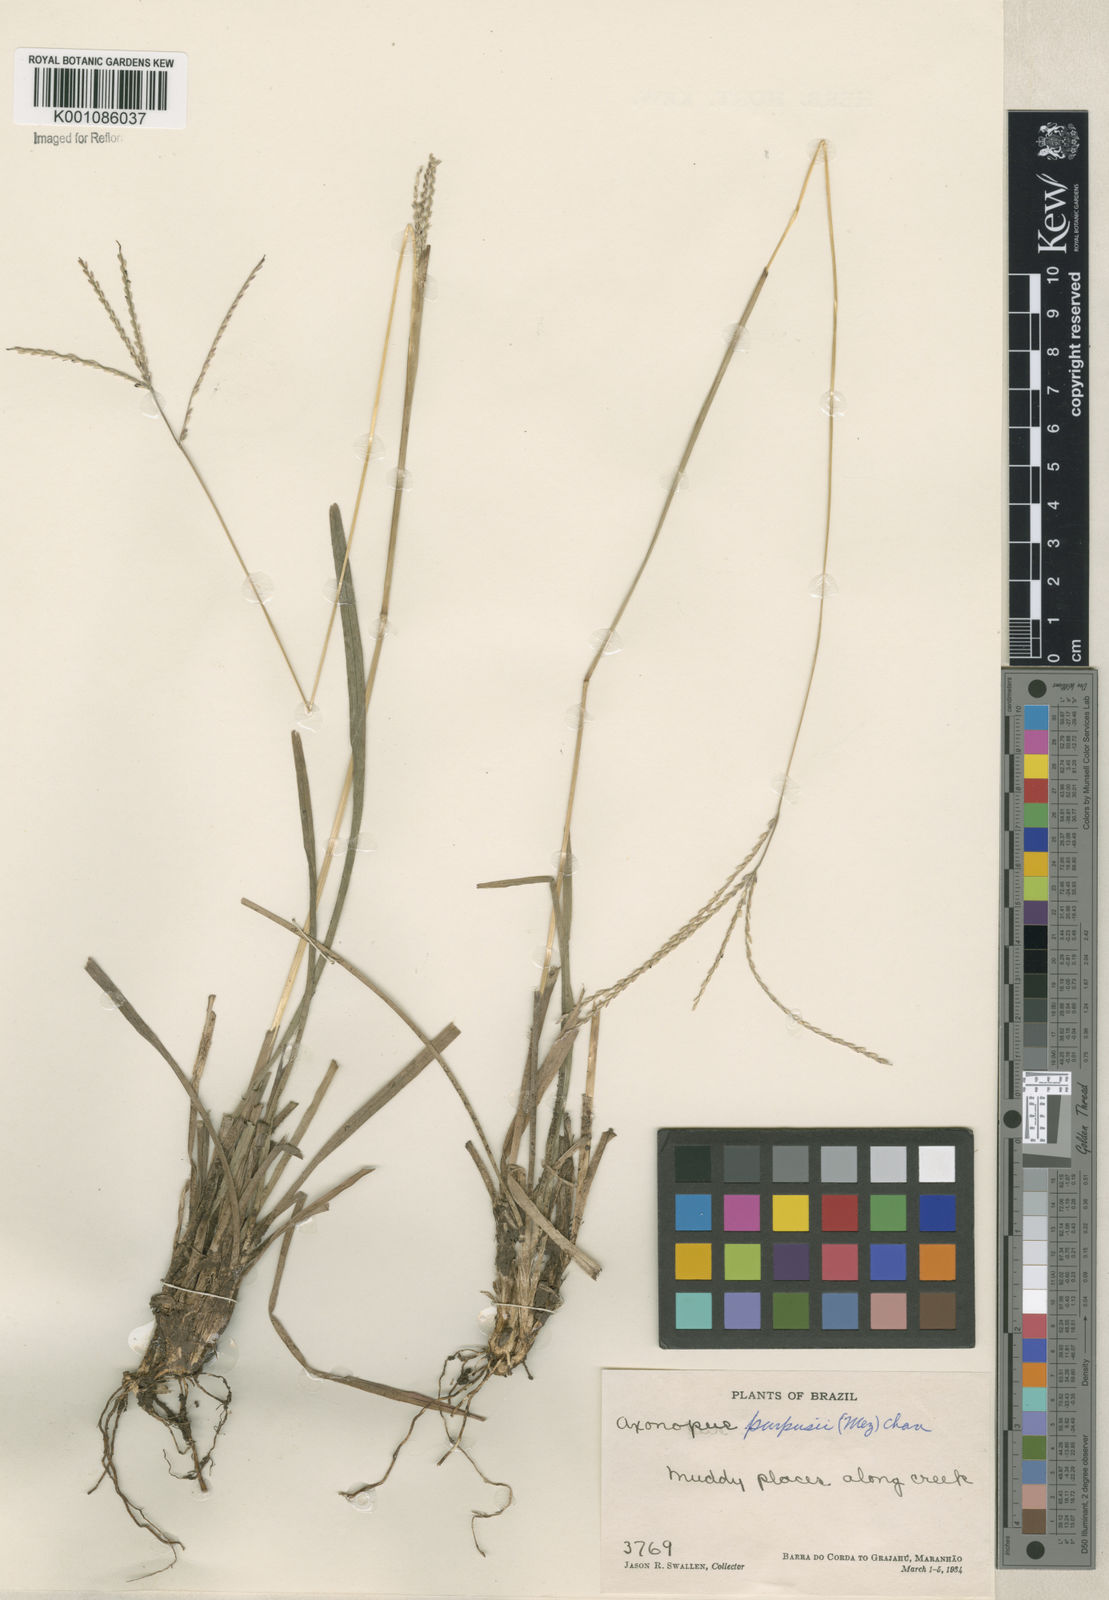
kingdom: Plantae
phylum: Tracheophyta
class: Liliopsida
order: Poales
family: Poaceae
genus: Axonopus
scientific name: Axonopus purpusii
